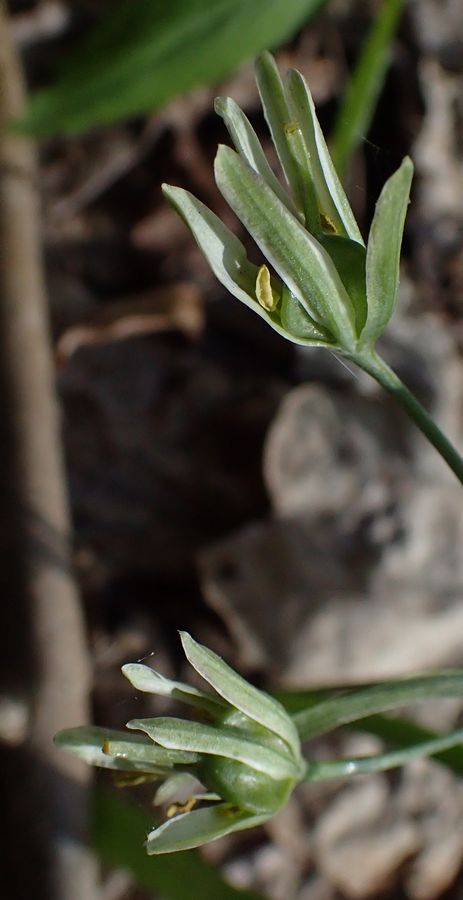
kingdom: Plantae
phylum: Tracheophyta
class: Liliopsida
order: Liliales
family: Liliaceae
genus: Gagea
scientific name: Gagea lutea
